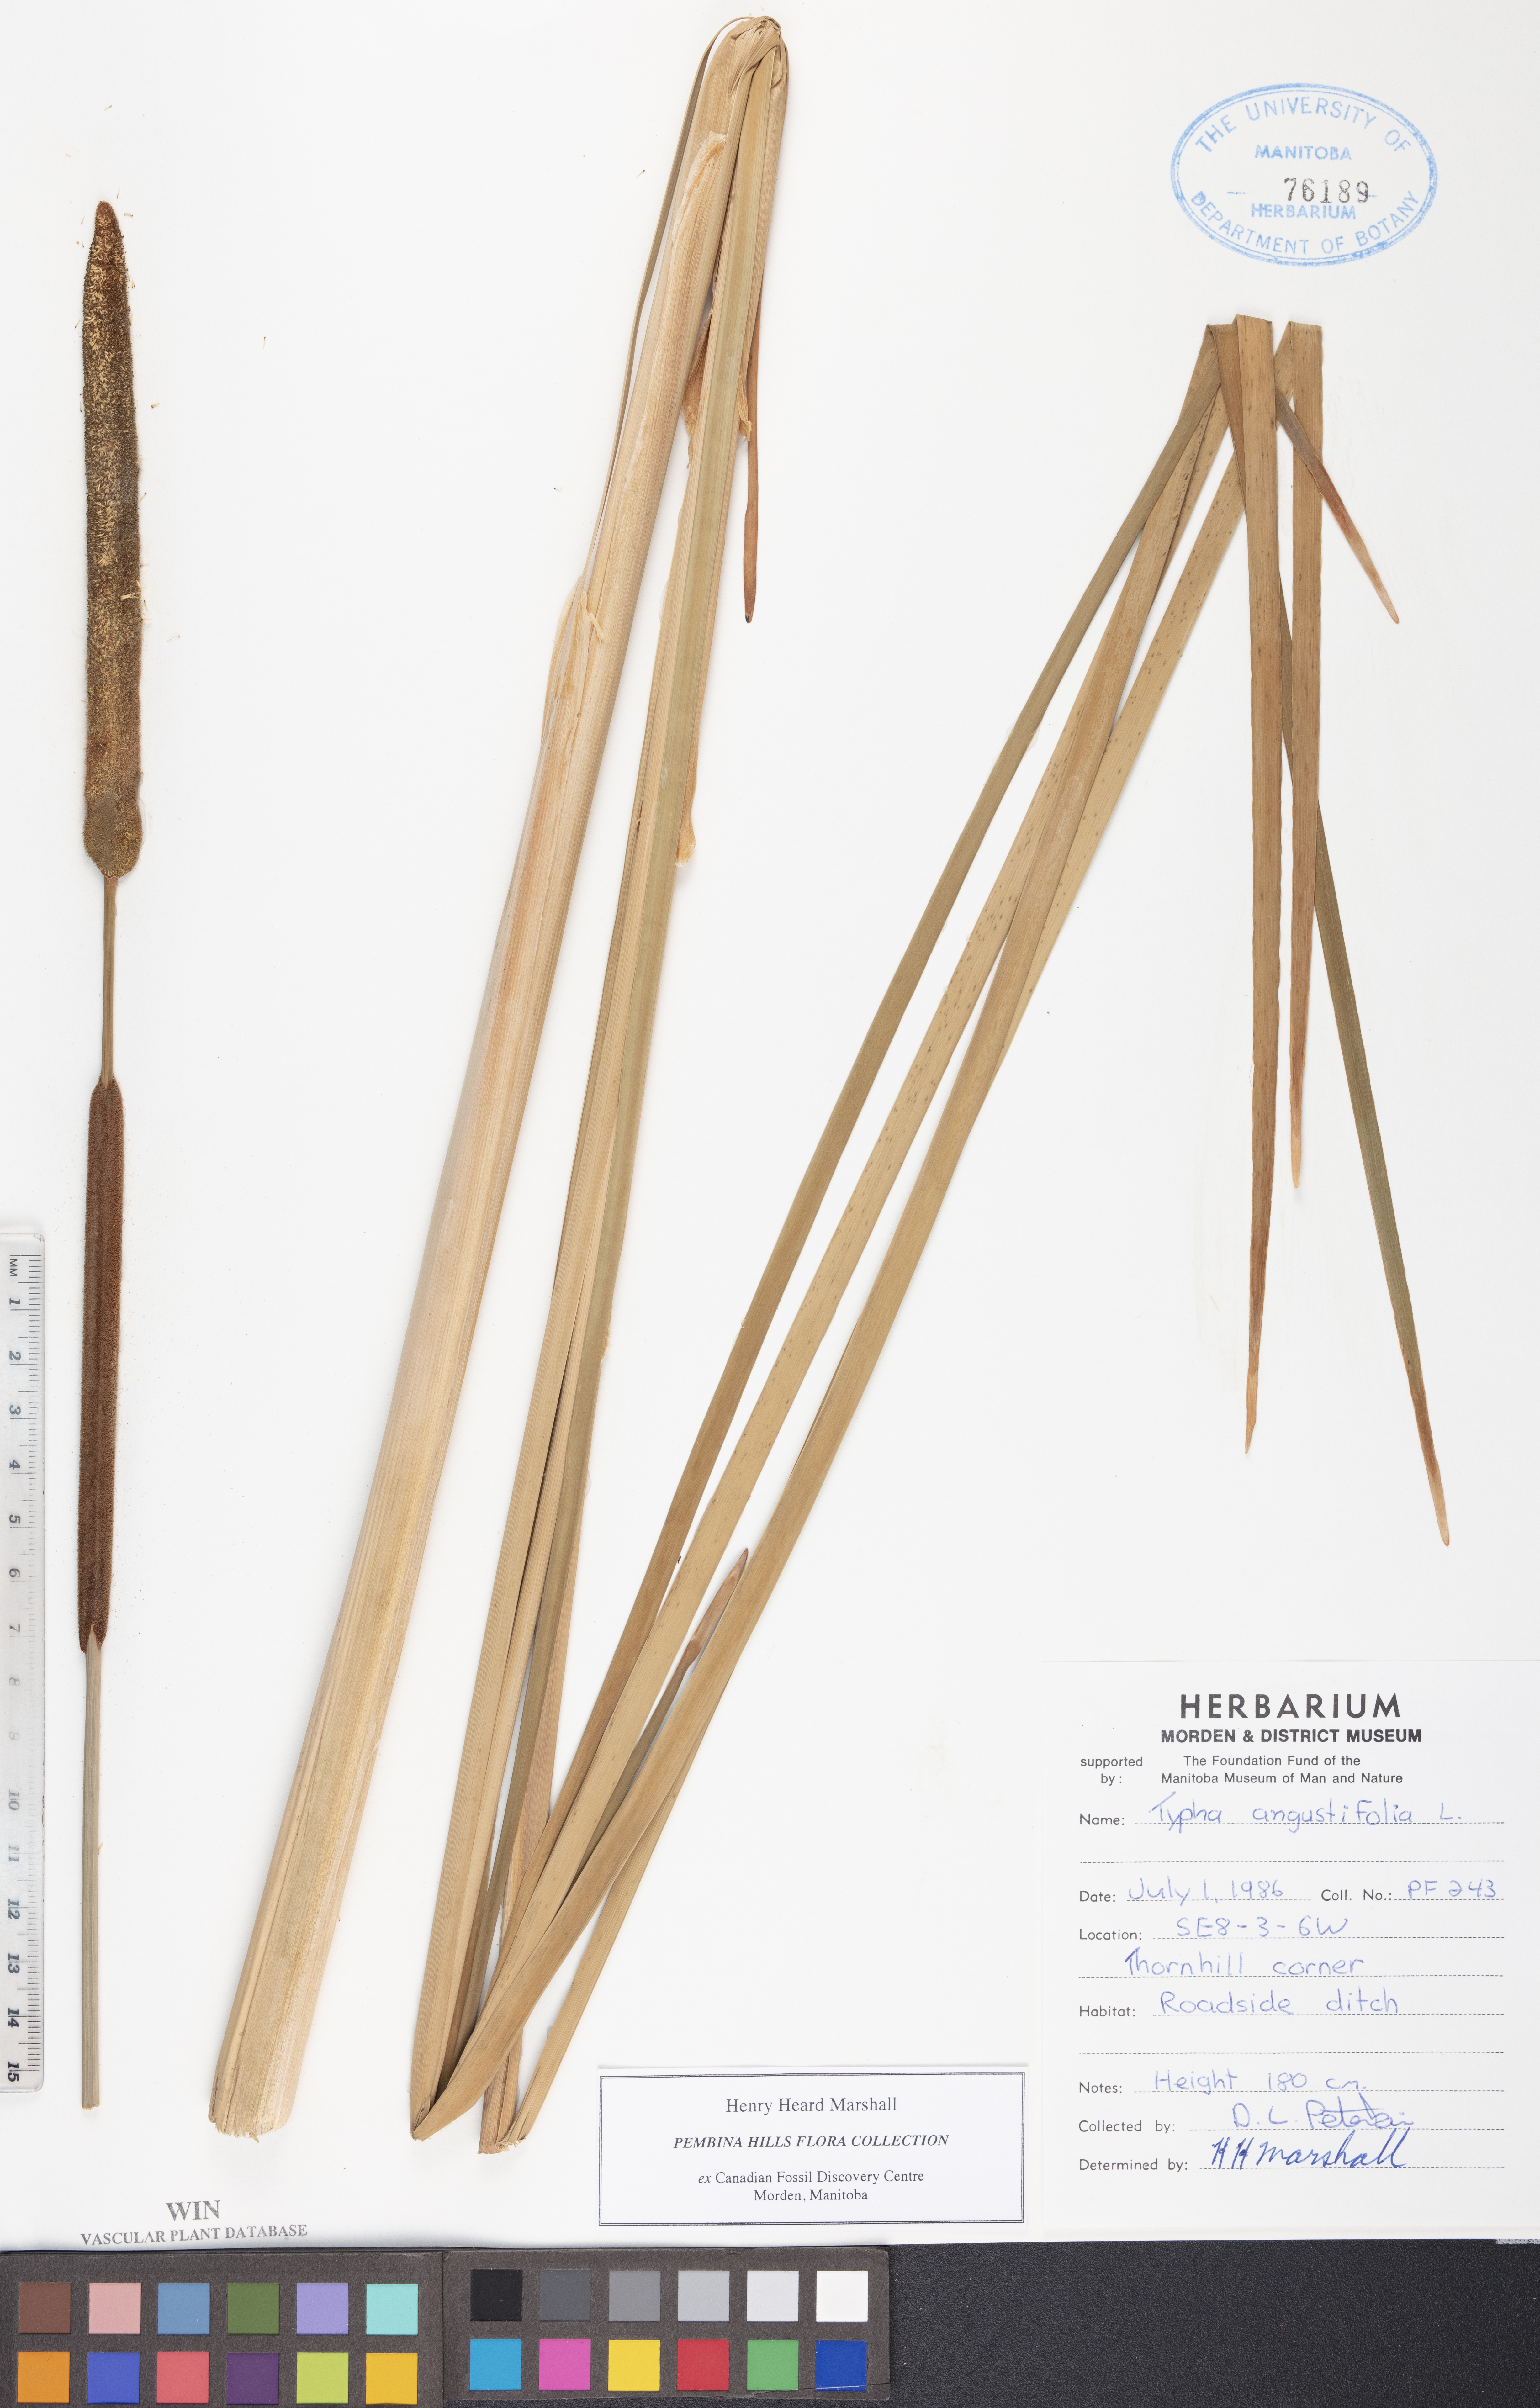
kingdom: Plantae
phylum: Tracheophyta
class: Liliopsida
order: Poales
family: Typhaceae
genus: Typha
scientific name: Typha angustifolia
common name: Lesser bulrush
